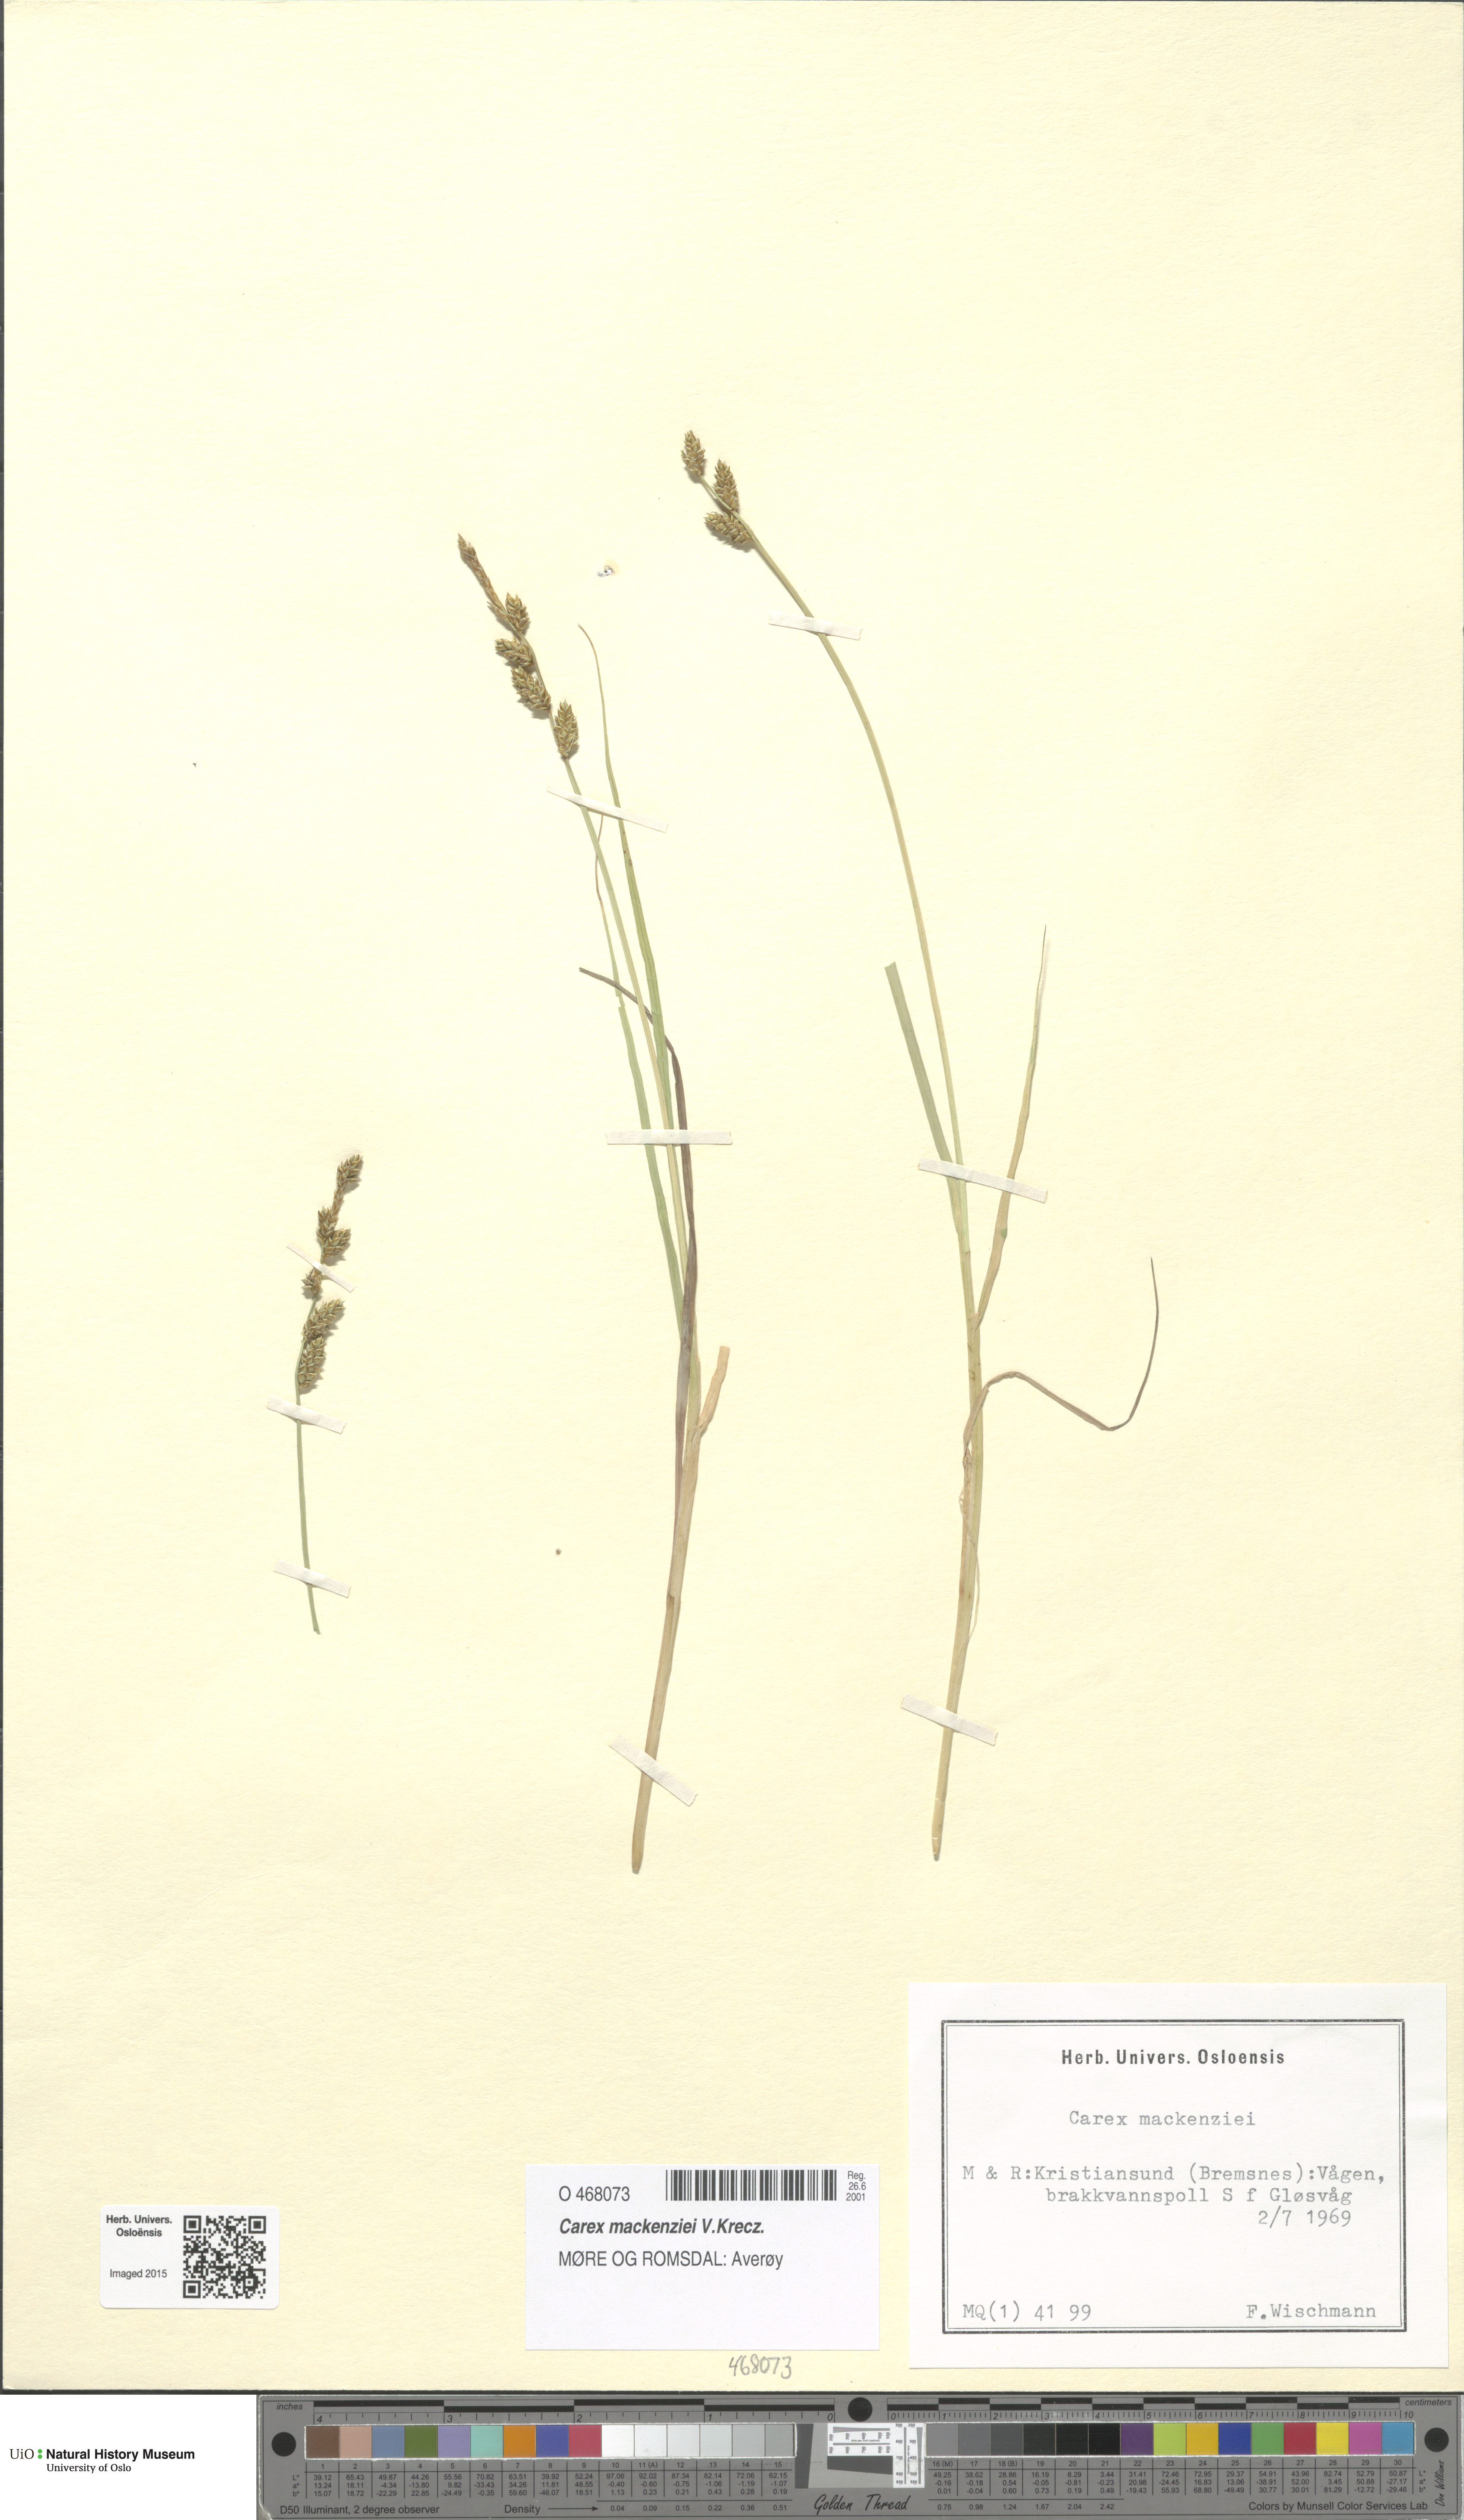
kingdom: Plantae
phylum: Tracheophyta
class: Liliopsida
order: Poales
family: Cyperaceae
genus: Carex
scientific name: Carex mackenziei
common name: Mackenzie's sedge
